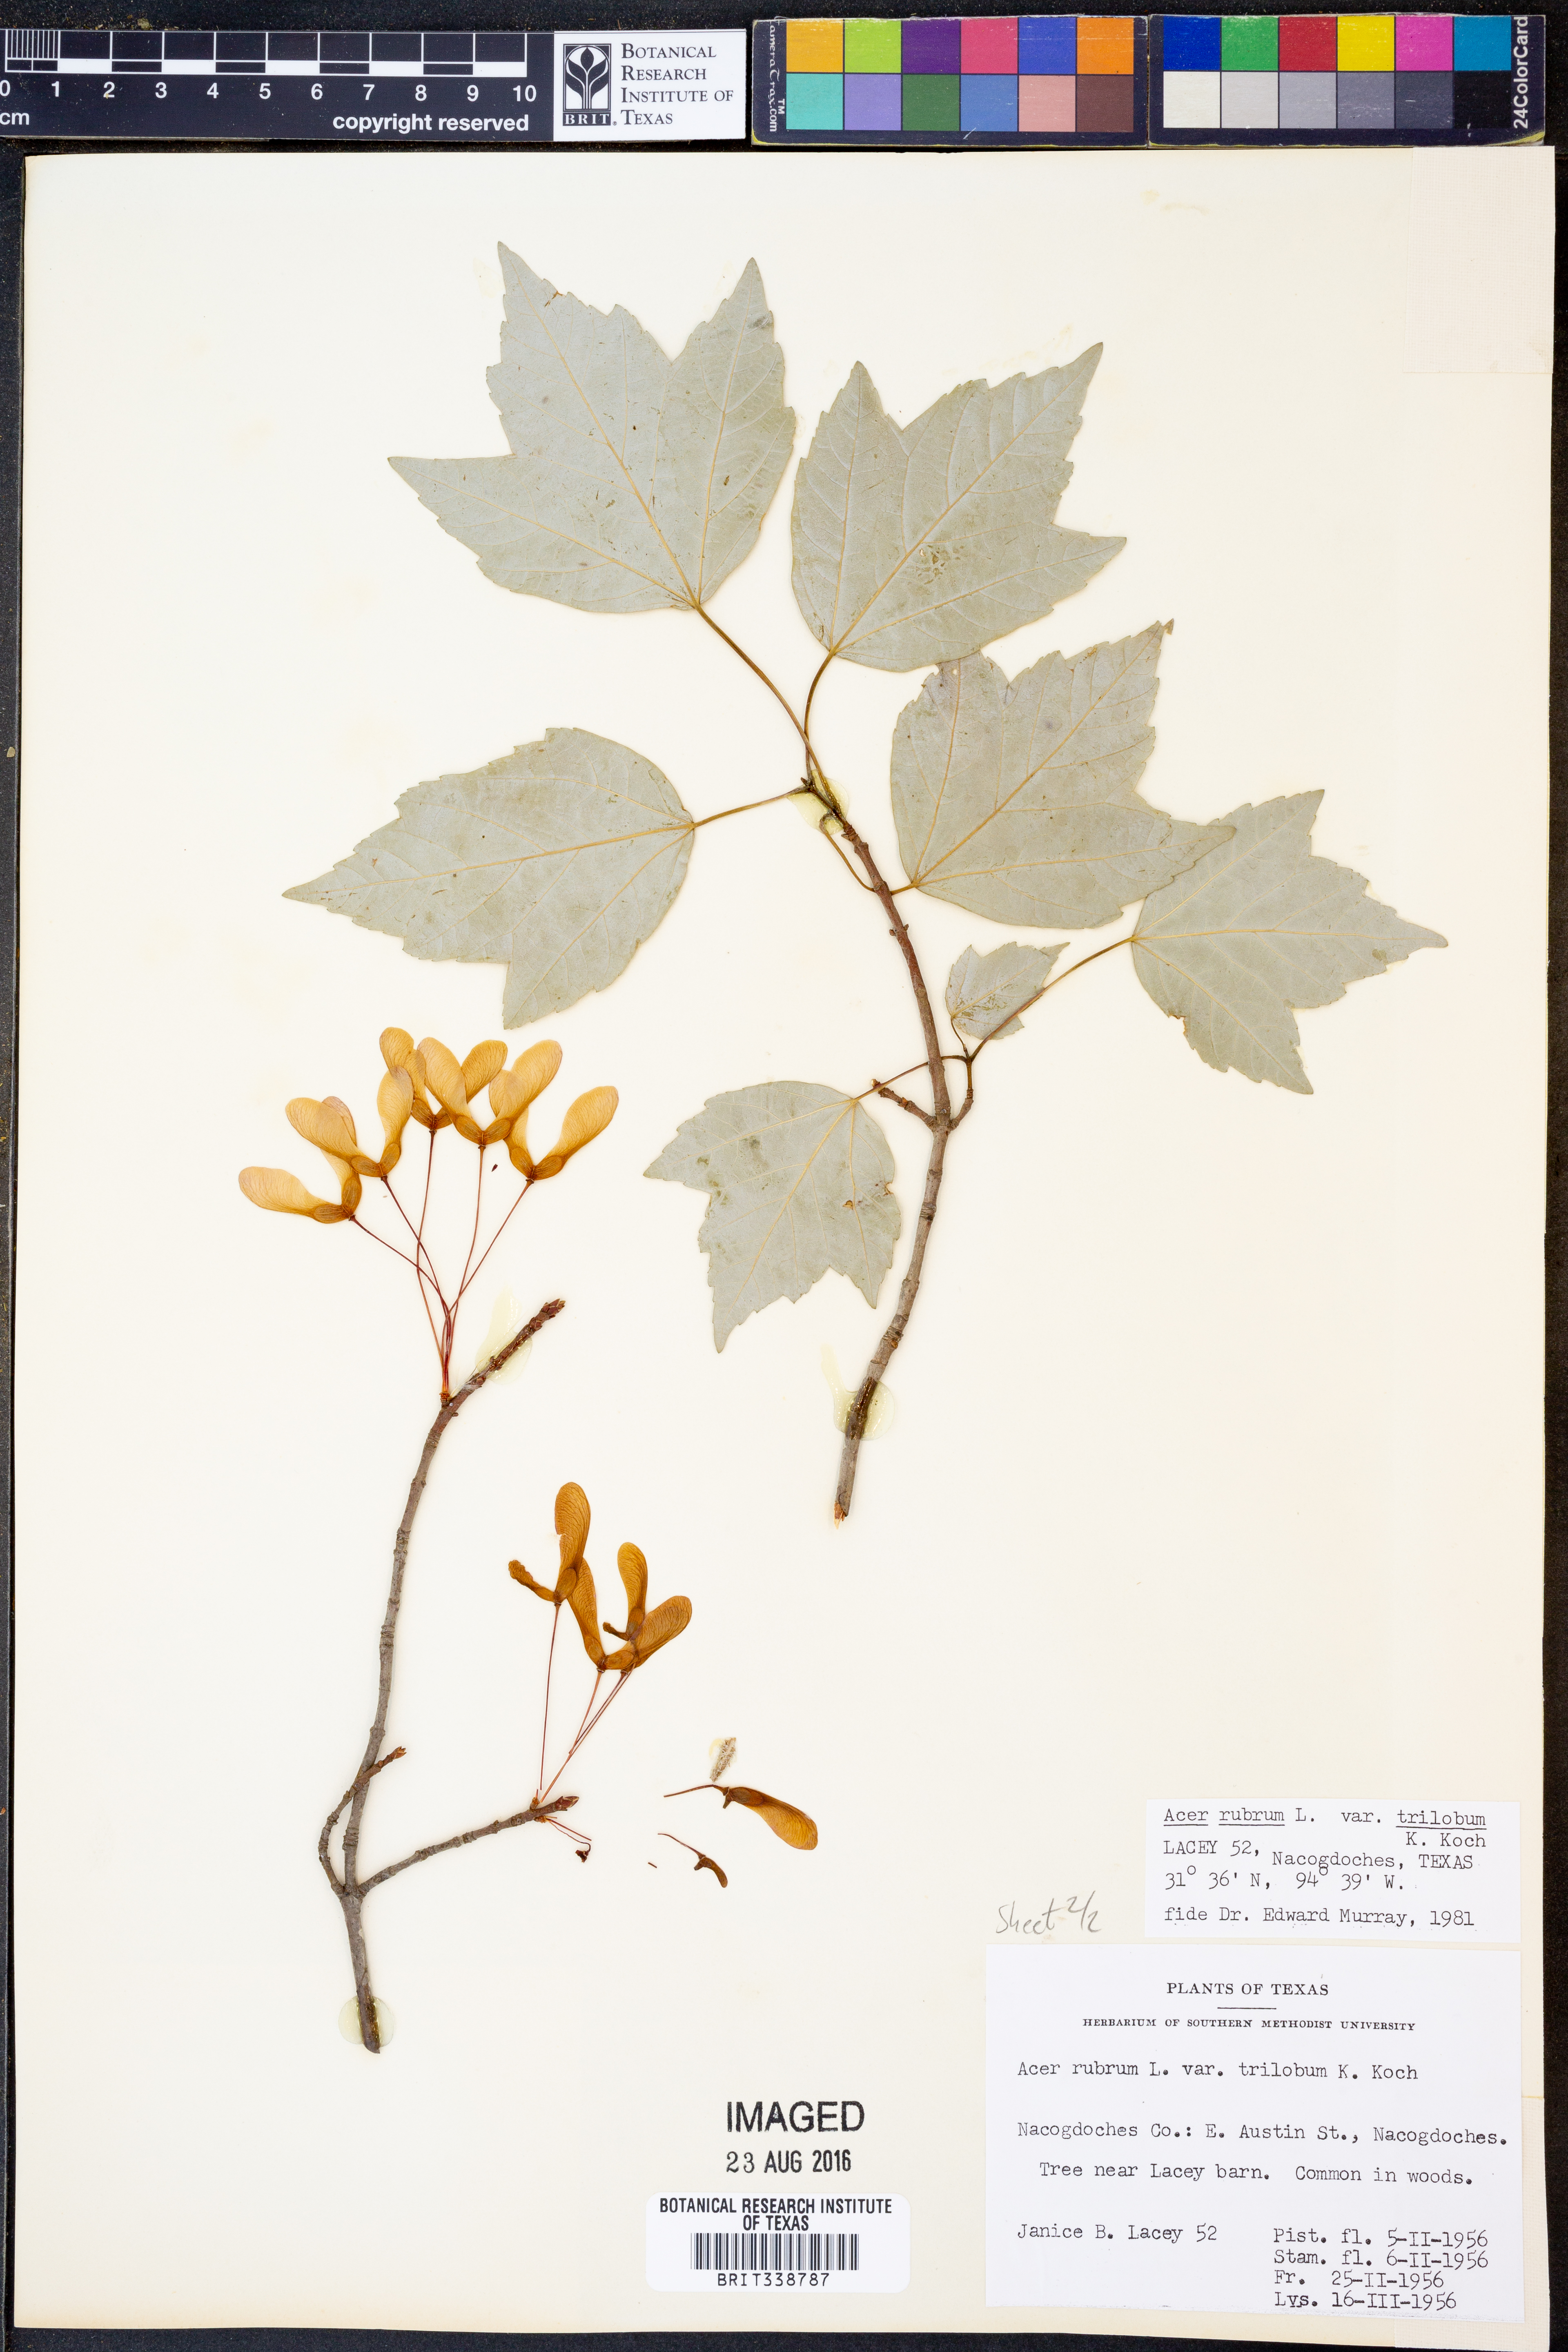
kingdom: Plantae
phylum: Tracheophyta
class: Magnoliopsida
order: Sapindales
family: Sapindaceae
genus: Acer
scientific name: Acer rubrum
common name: Red maple
